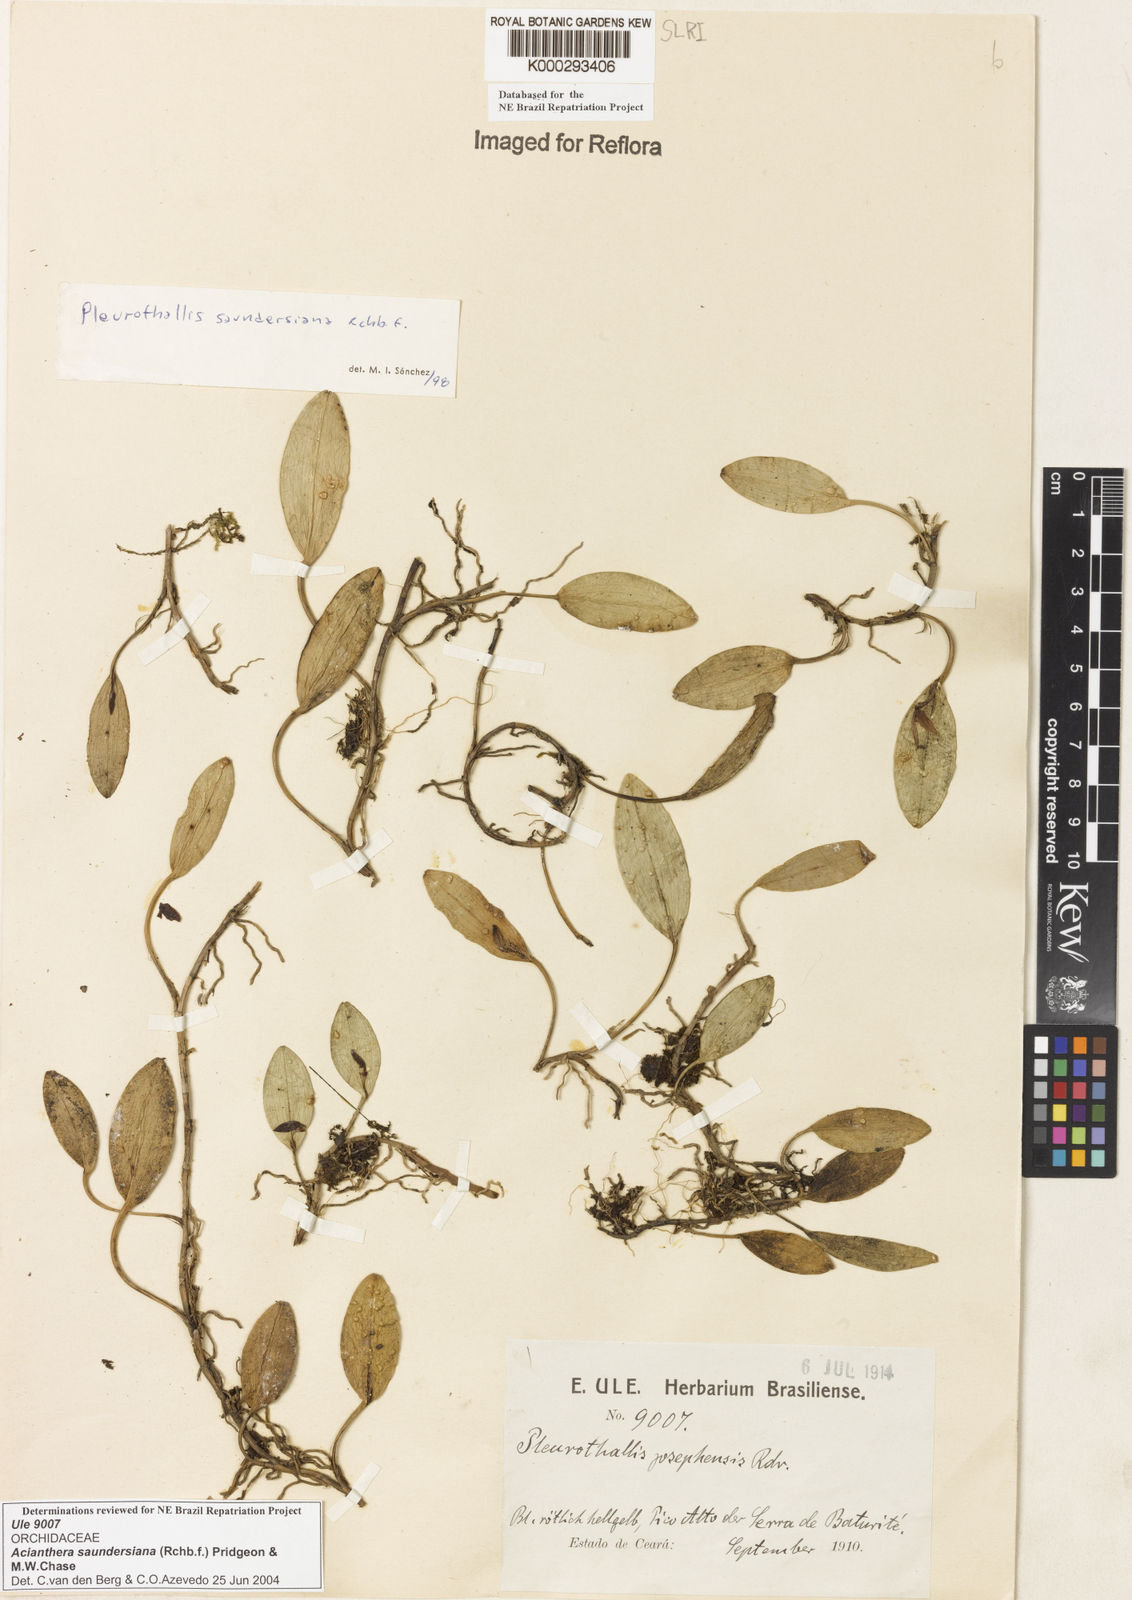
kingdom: Plantae
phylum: Tracheophyta
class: Liliopsida
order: Asparagales
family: Orchidaceae
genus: Acianthera
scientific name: Acianthera saundersiana
